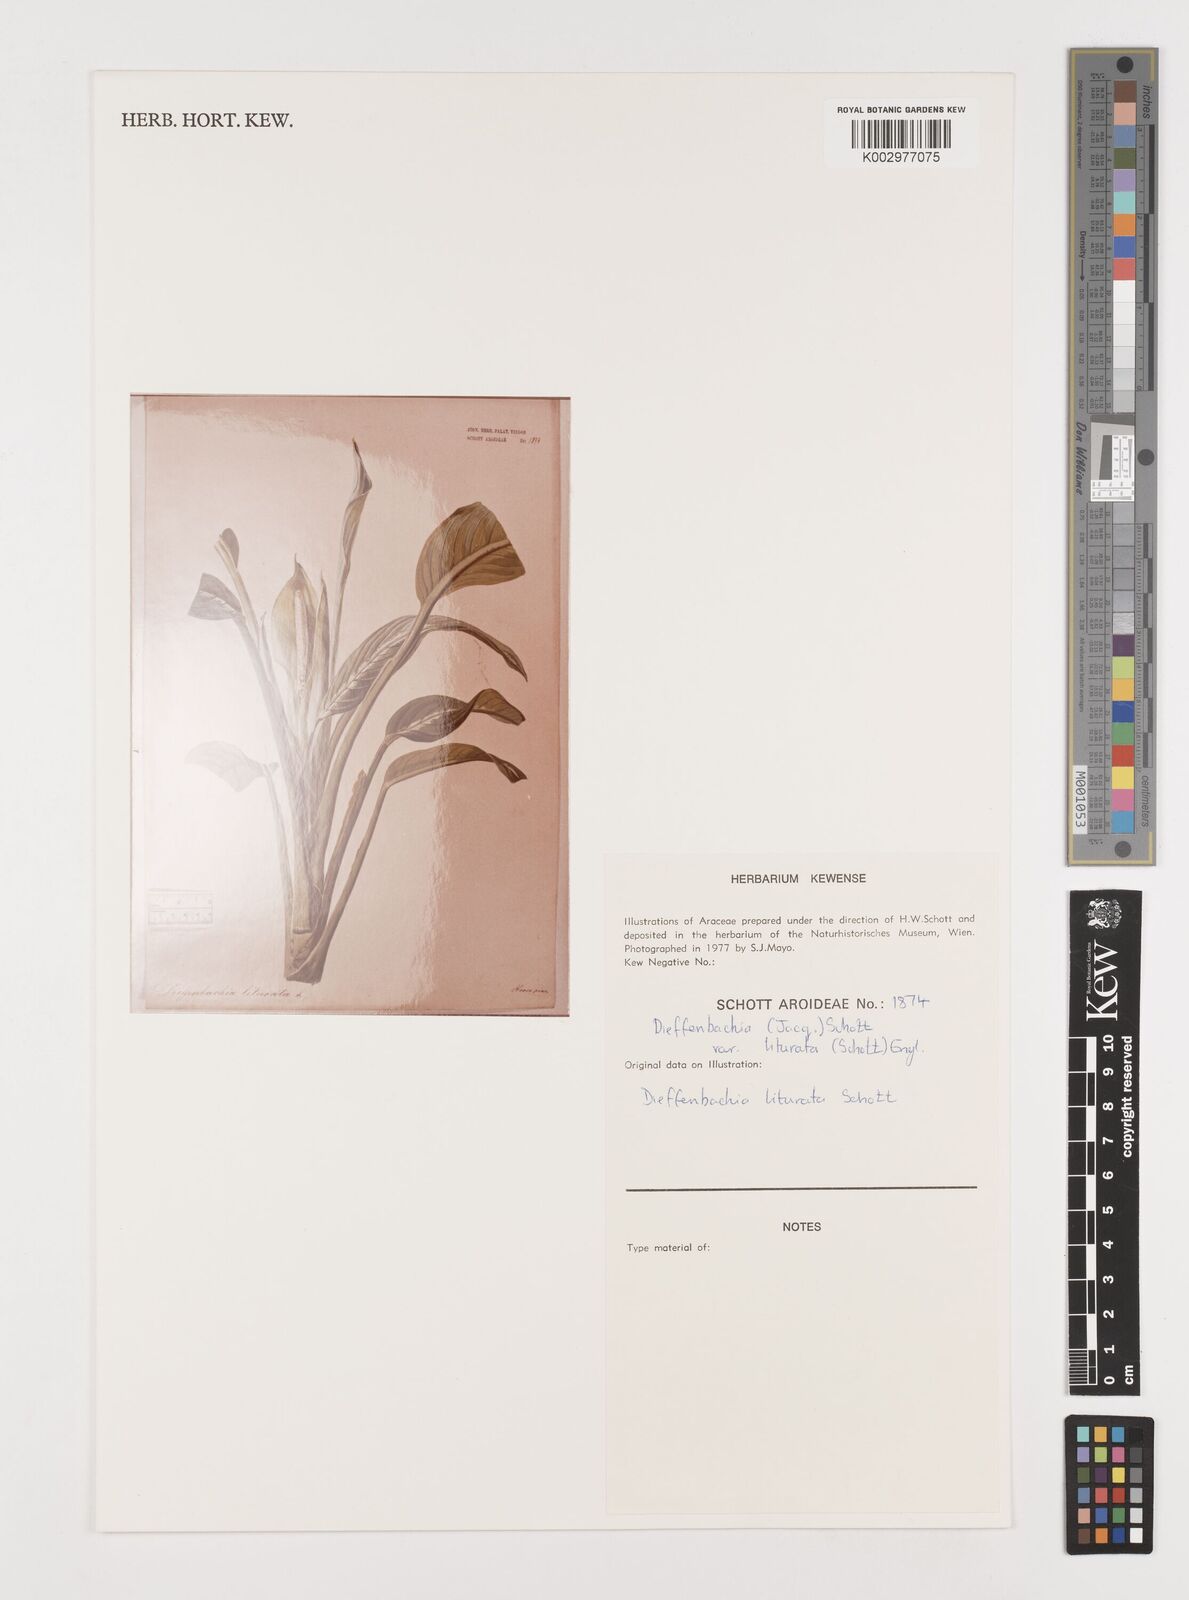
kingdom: Plantae
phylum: Tracheophyta
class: Liliopsida
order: Alismatales
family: Araceae
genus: Dieffenbachia
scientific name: Dieffenbachia seguine
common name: Dumbcane
